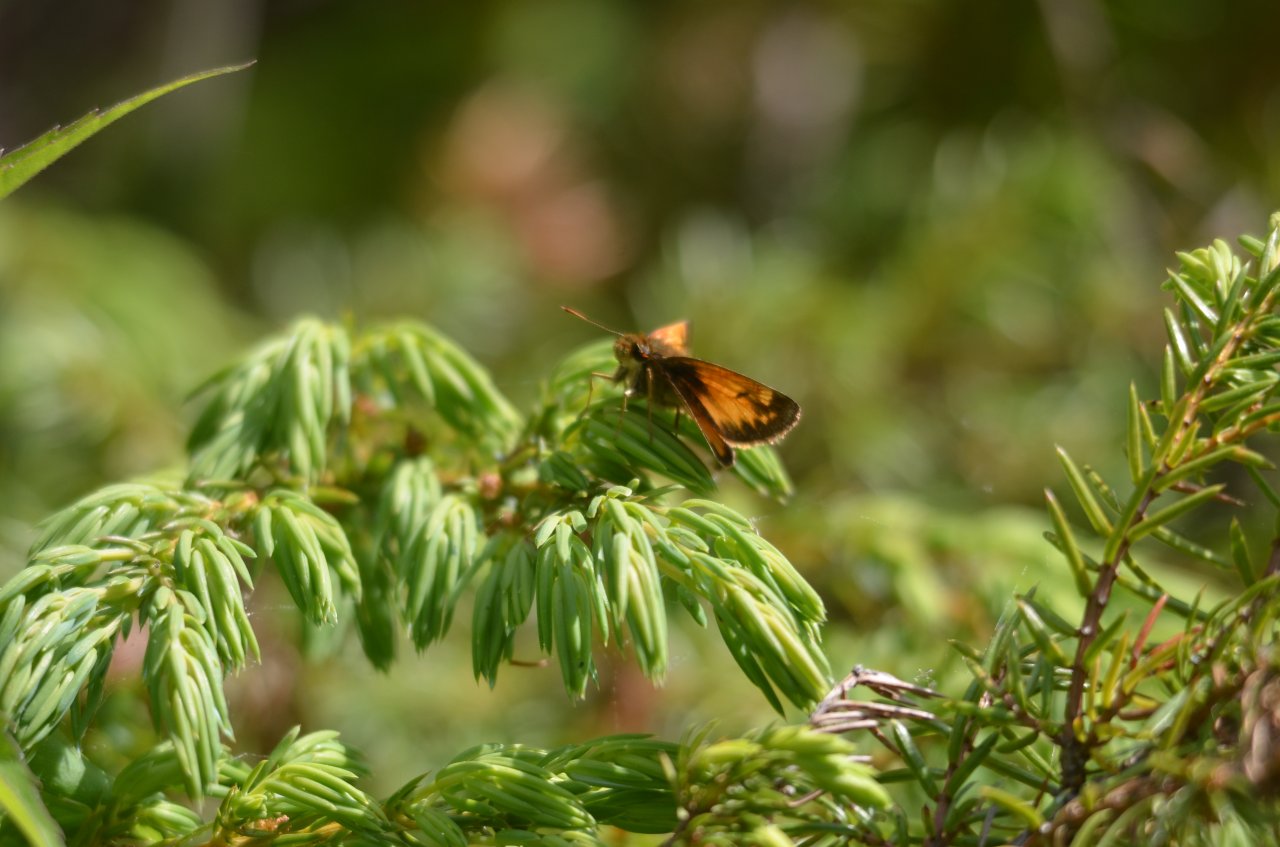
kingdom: Animalia
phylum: Arthropoda
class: Insecta
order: Lepidoptera
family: Hesperiidae
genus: Lon
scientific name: Lon hobomok
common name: Hobomok Skipper
